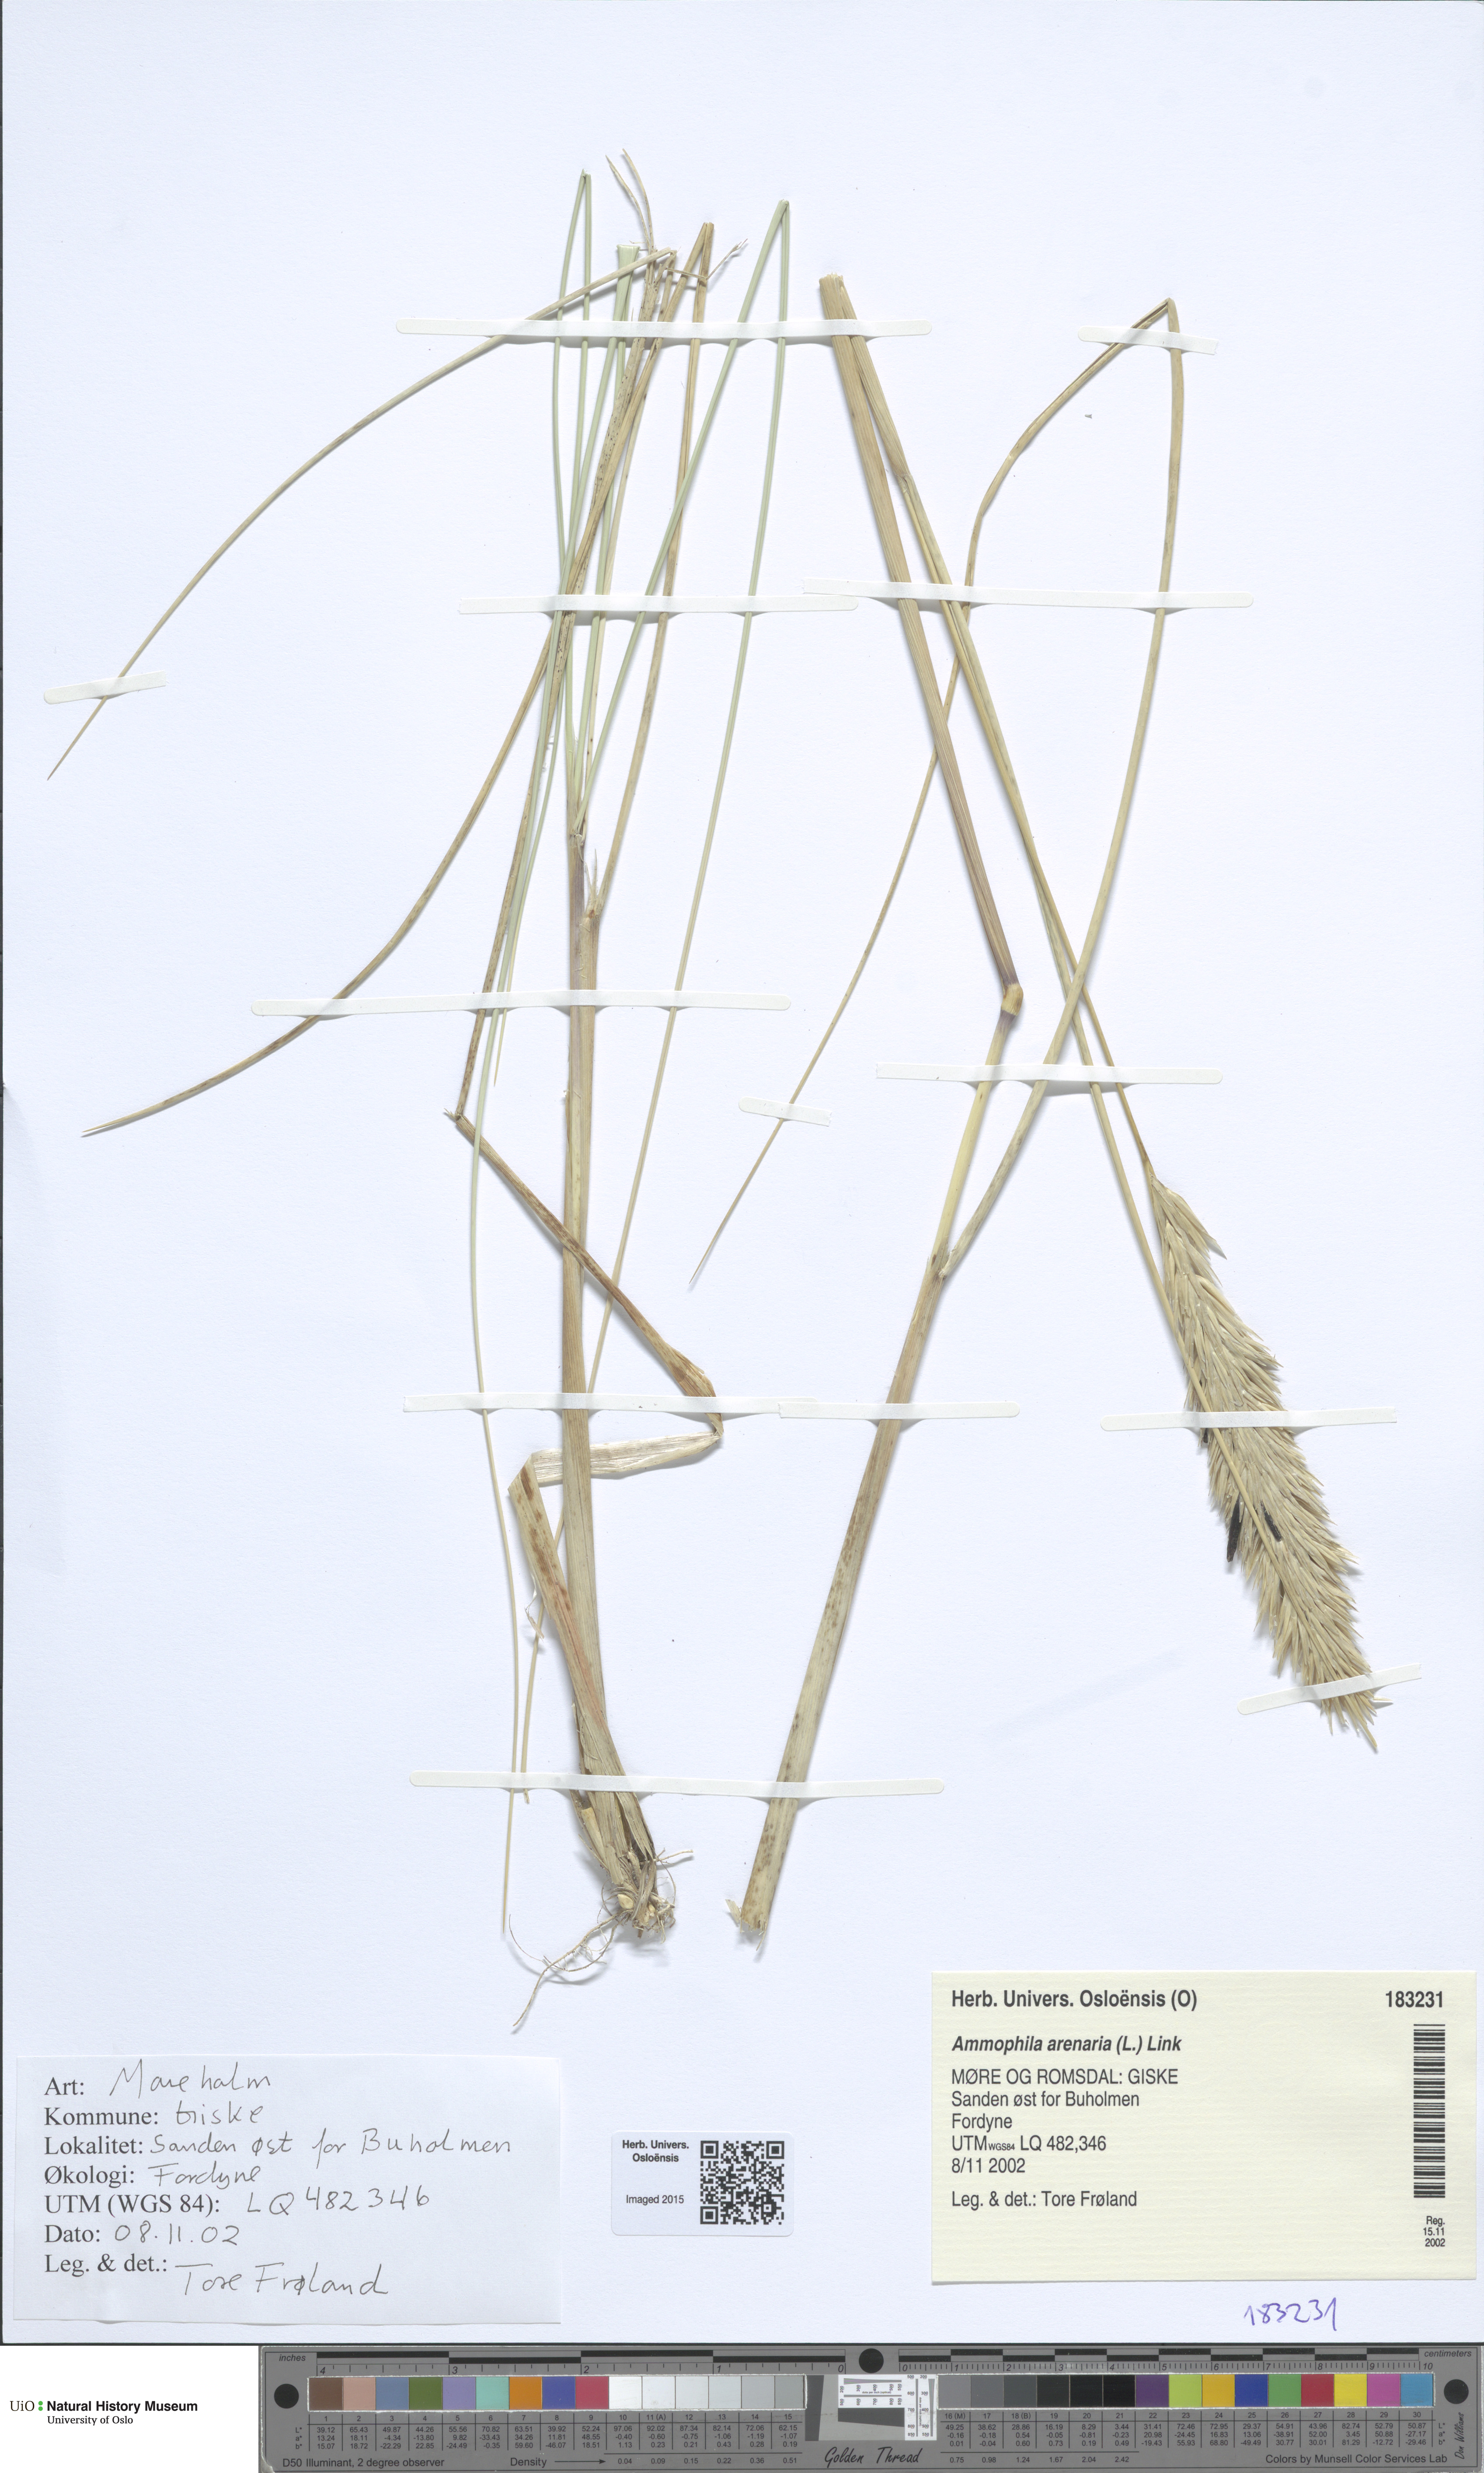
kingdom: Plantae
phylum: Tracheophyta
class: Liliopsida
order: Poales
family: Poaceae
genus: Calamagrostis
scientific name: Calamagrostis arenaria
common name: European beachgrass
